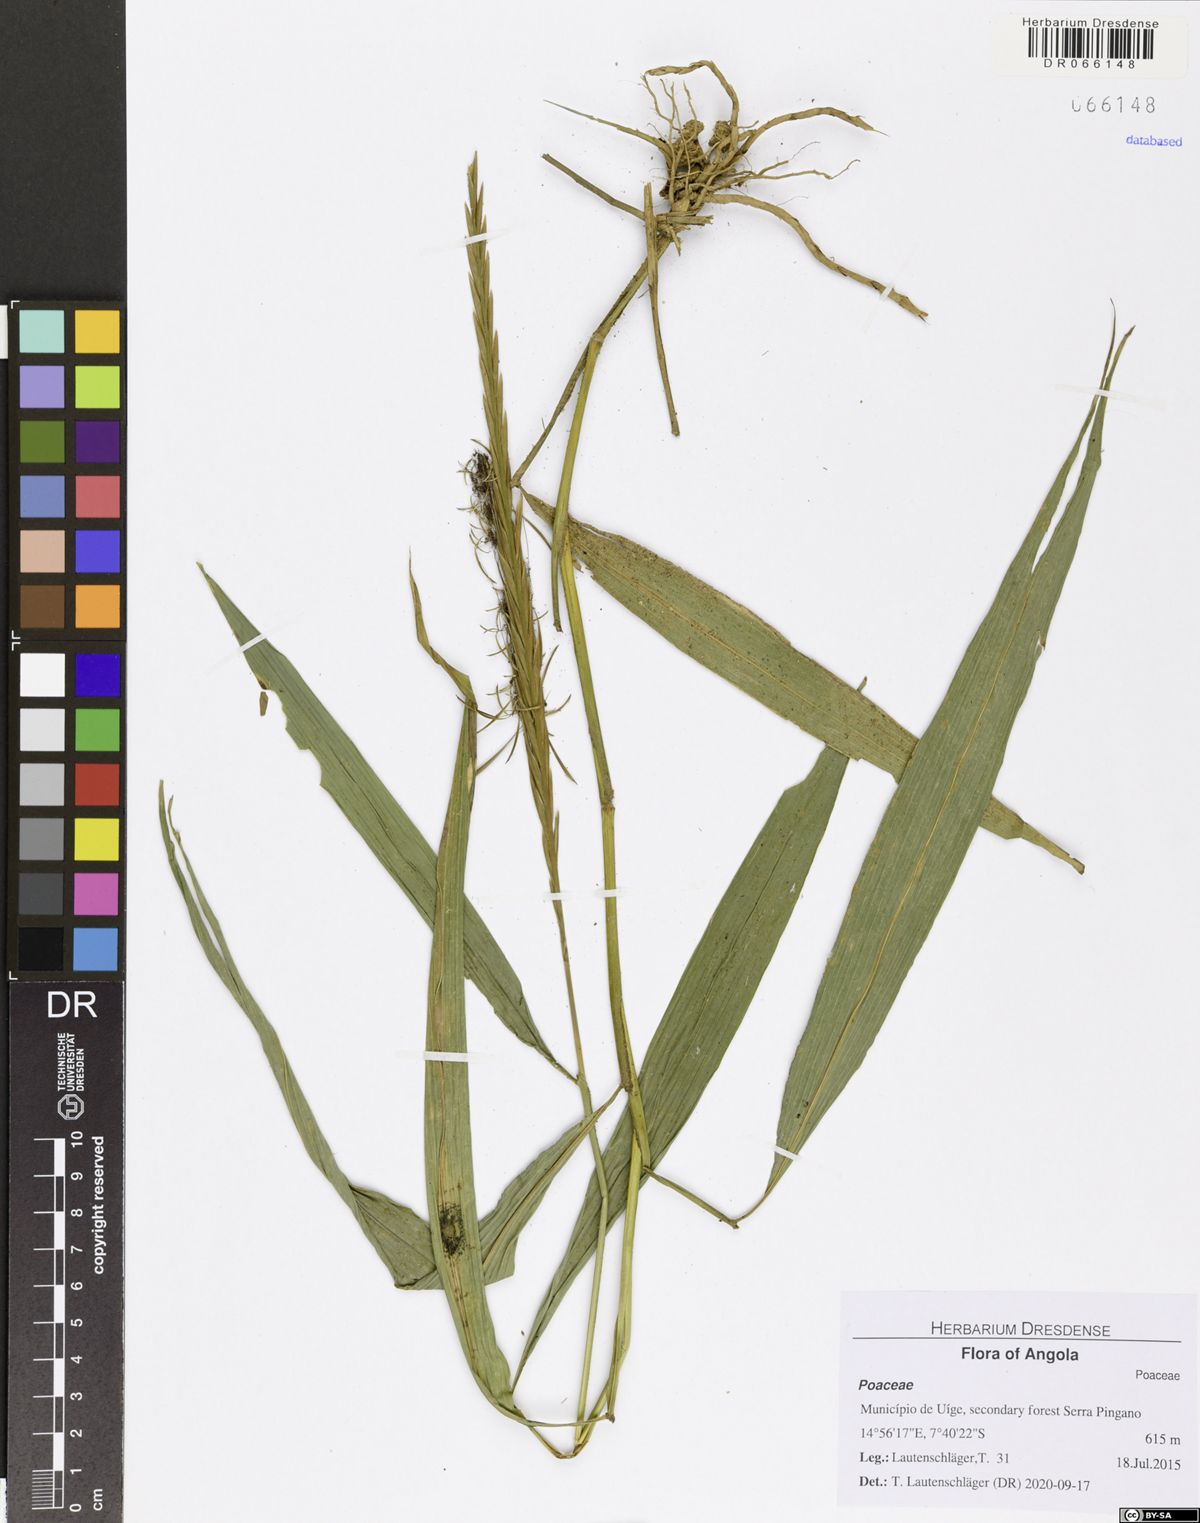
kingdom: Plantae
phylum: Tracheophyta
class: Liliopsida
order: Poales
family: Poaceae
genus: Streptogyna
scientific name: Streptogyna crinita
